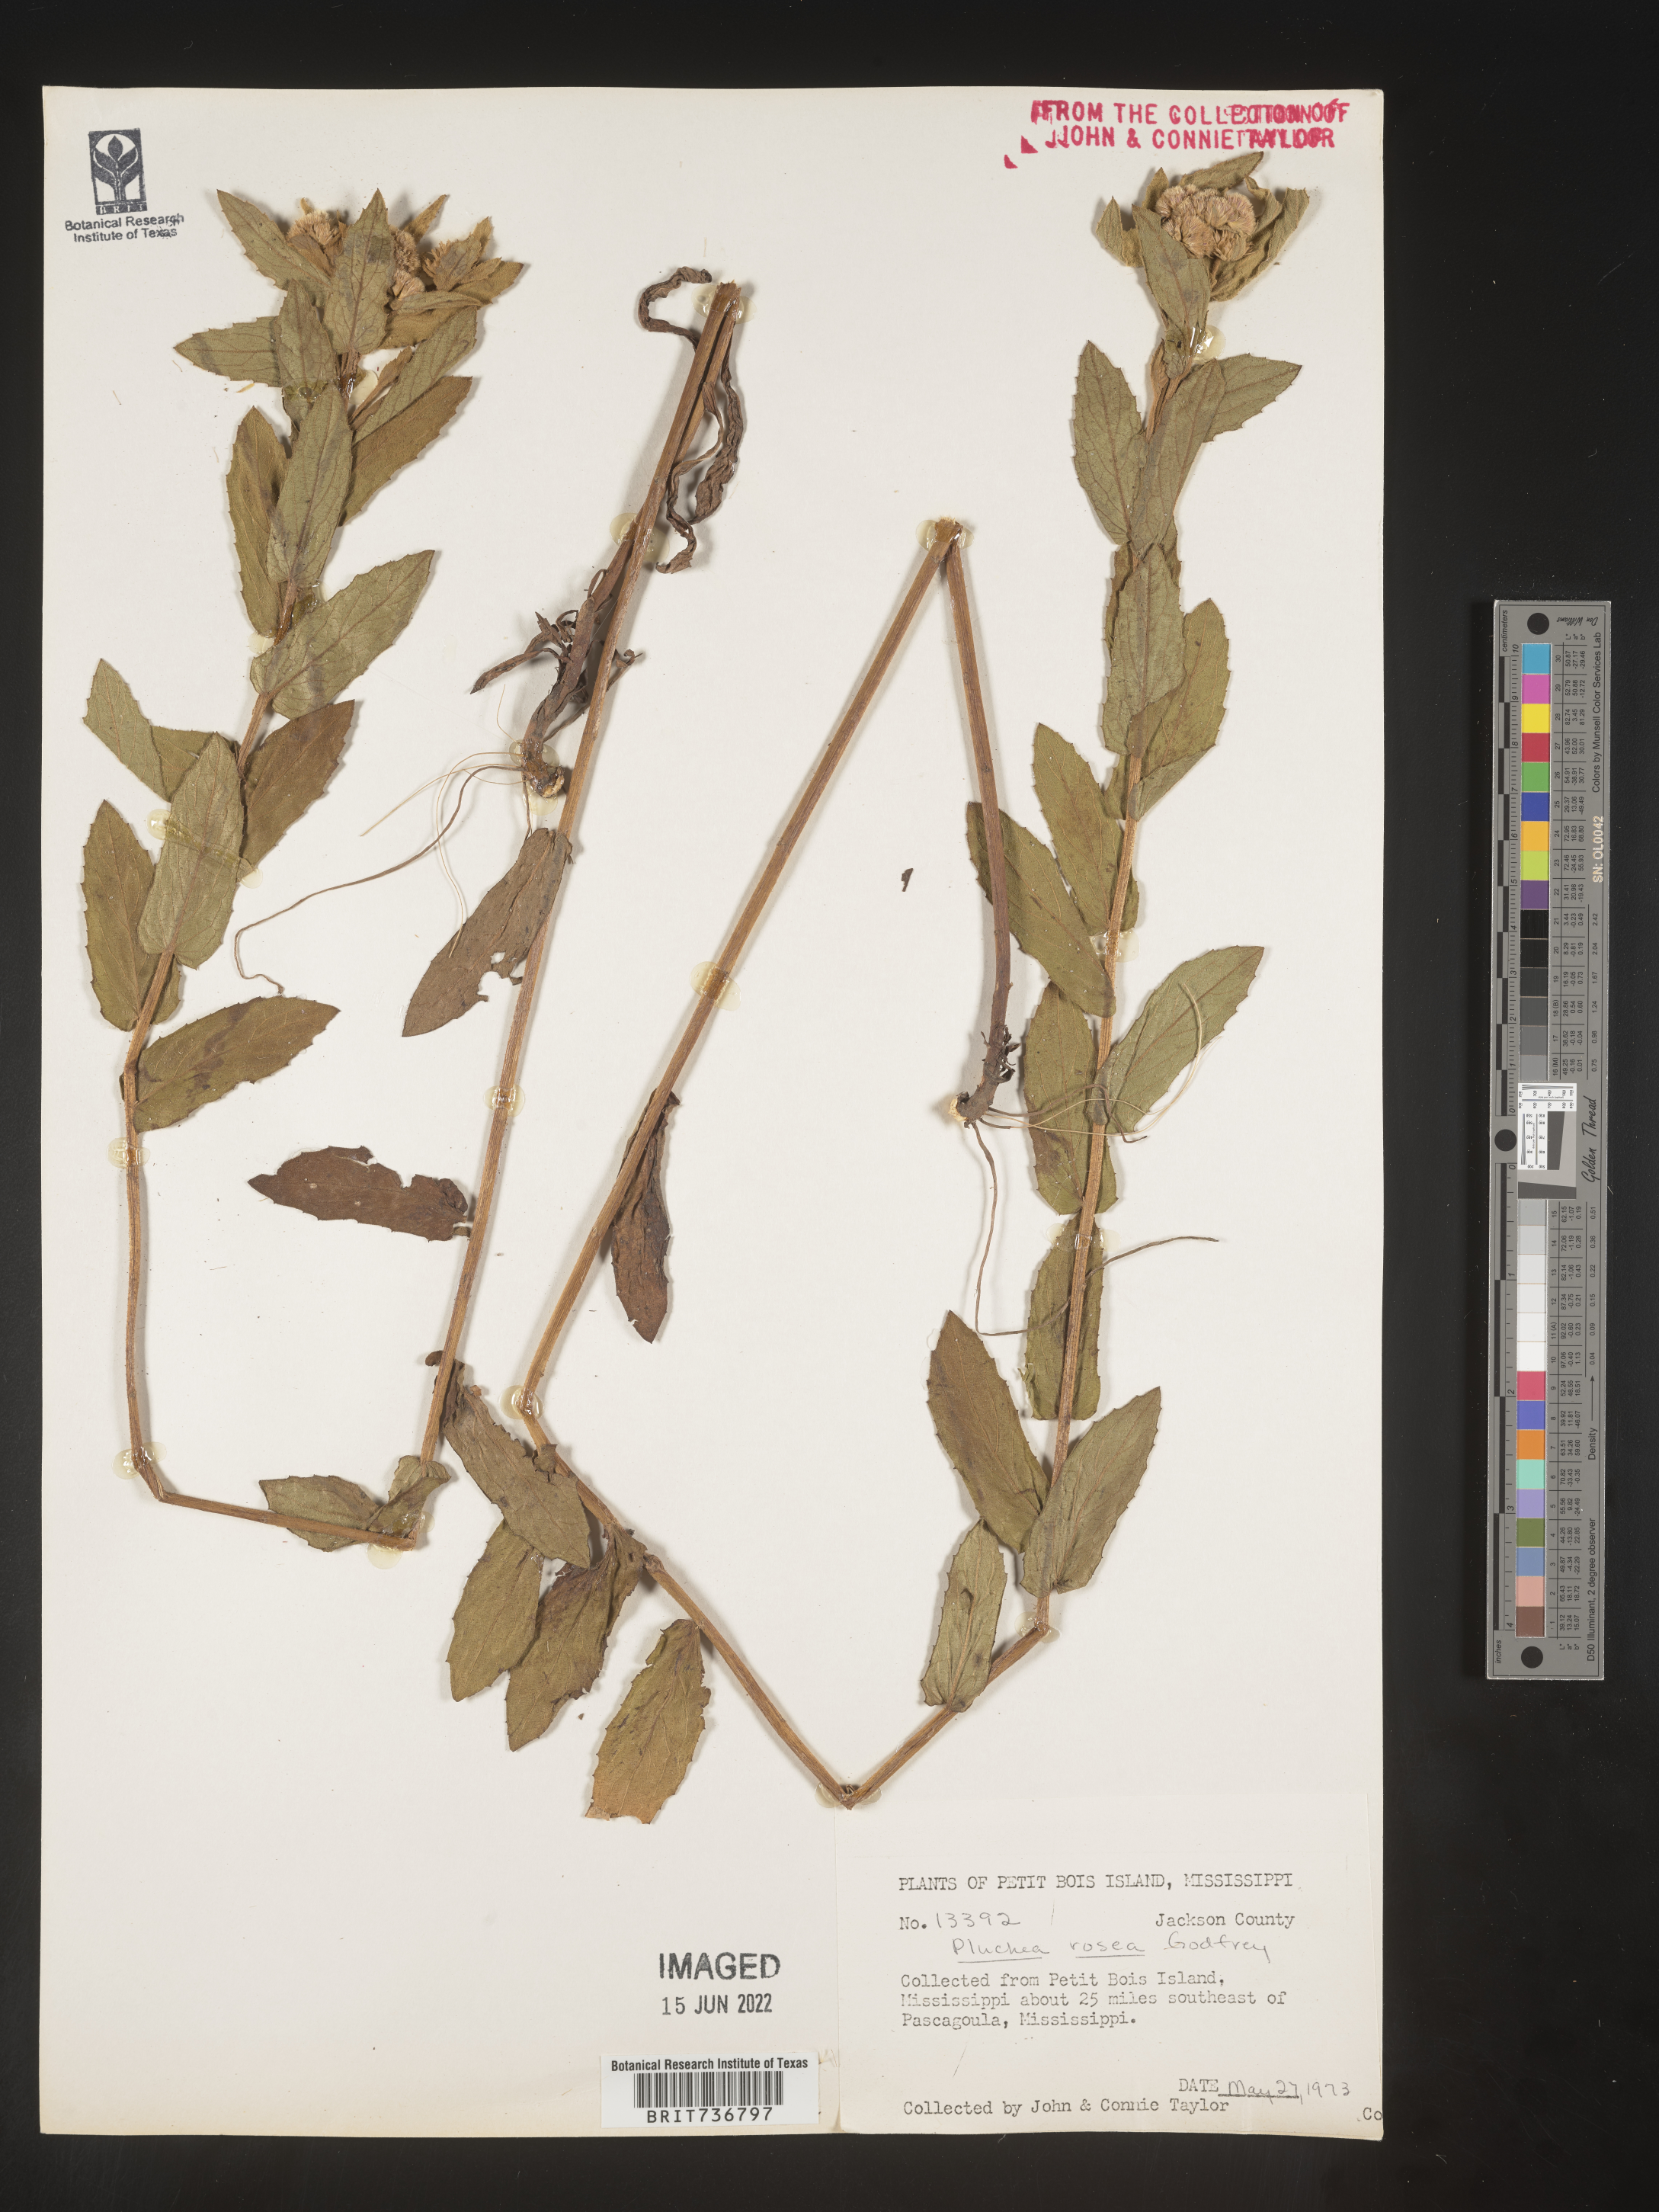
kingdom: Plantae
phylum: Tracheophyta
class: Magnoliopsida
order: Asterales
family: Asteraceae
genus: Pluchea
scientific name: Pluchea baccharis
